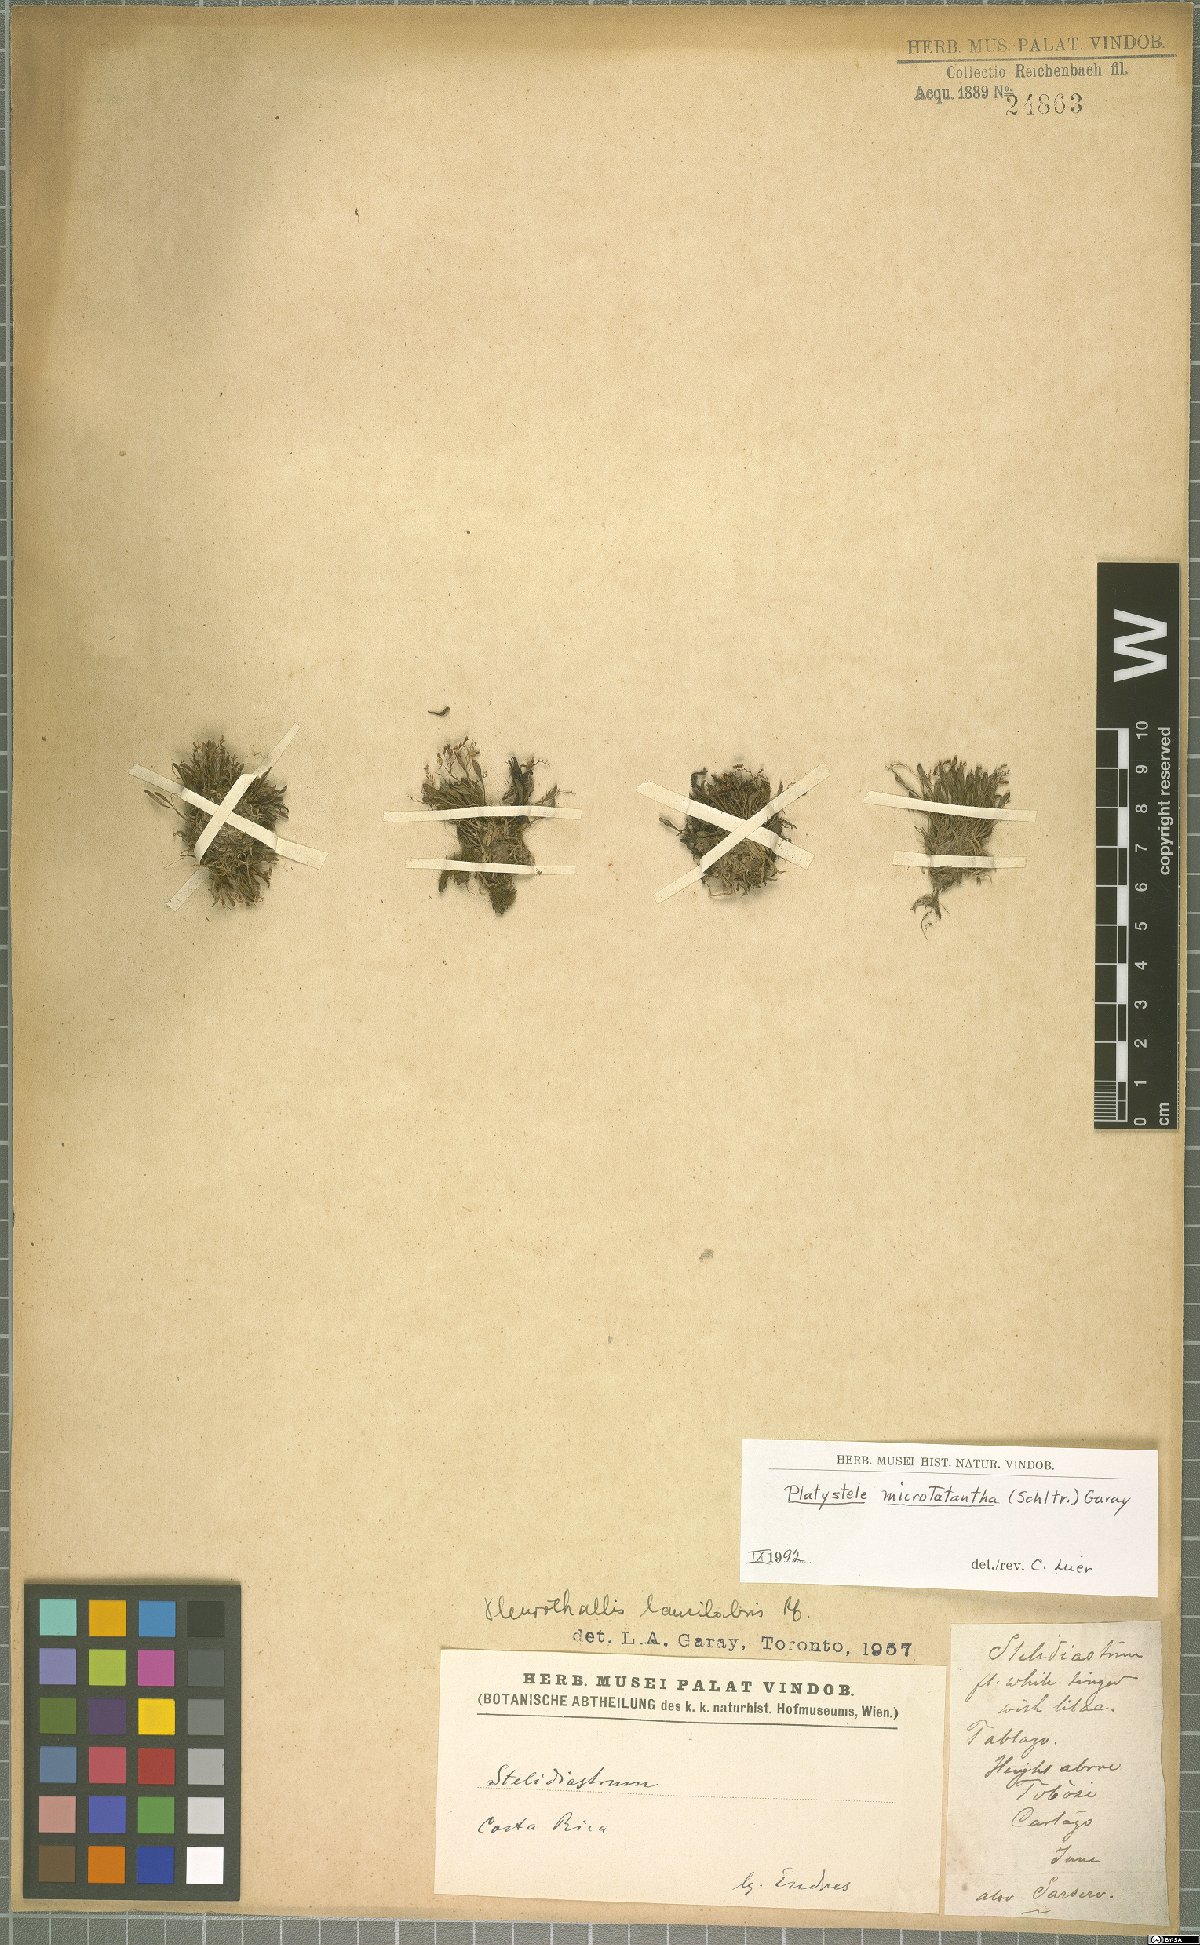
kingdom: Plantae
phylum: Tracheophyta
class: Liliopsida
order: Asparagales
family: Orchidaceae
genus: Pleurothallis
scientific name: Pleurothallis
